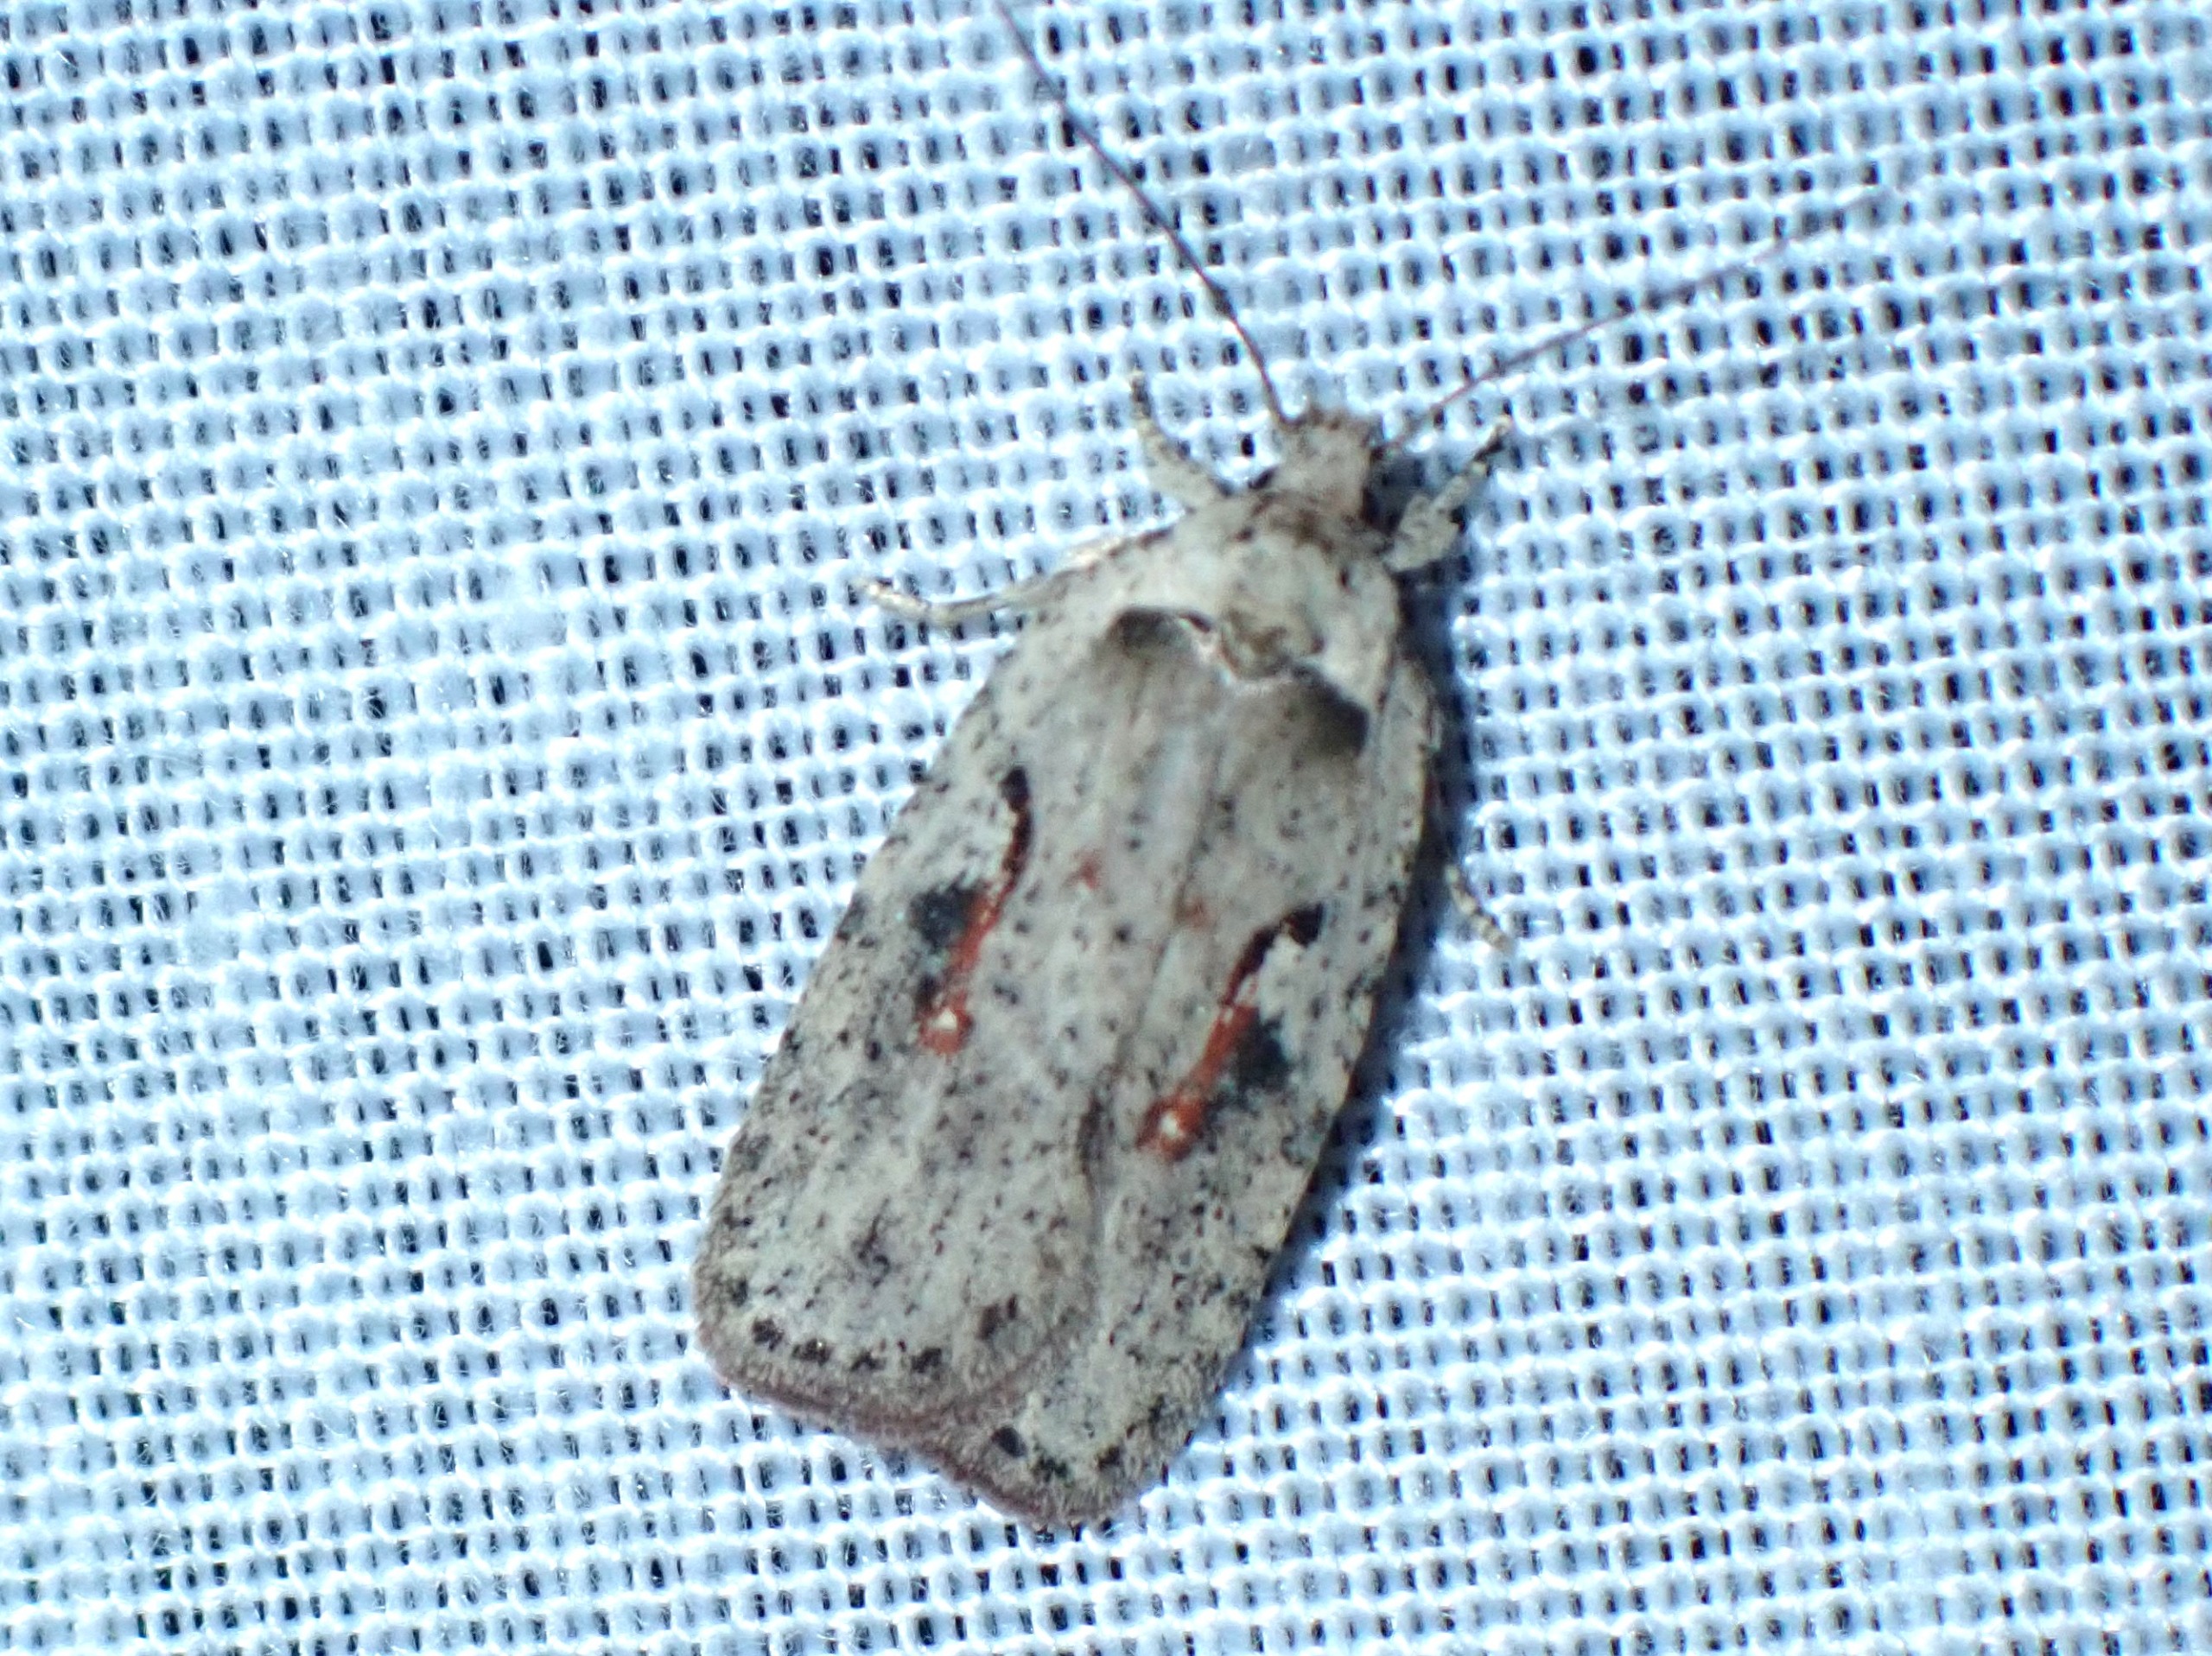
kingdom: Animalia
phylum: Arthropoda
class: Insecta
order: Lepidoptera
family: Depressariidae
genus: Agonopterix
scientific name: Agonopterix ocellana
